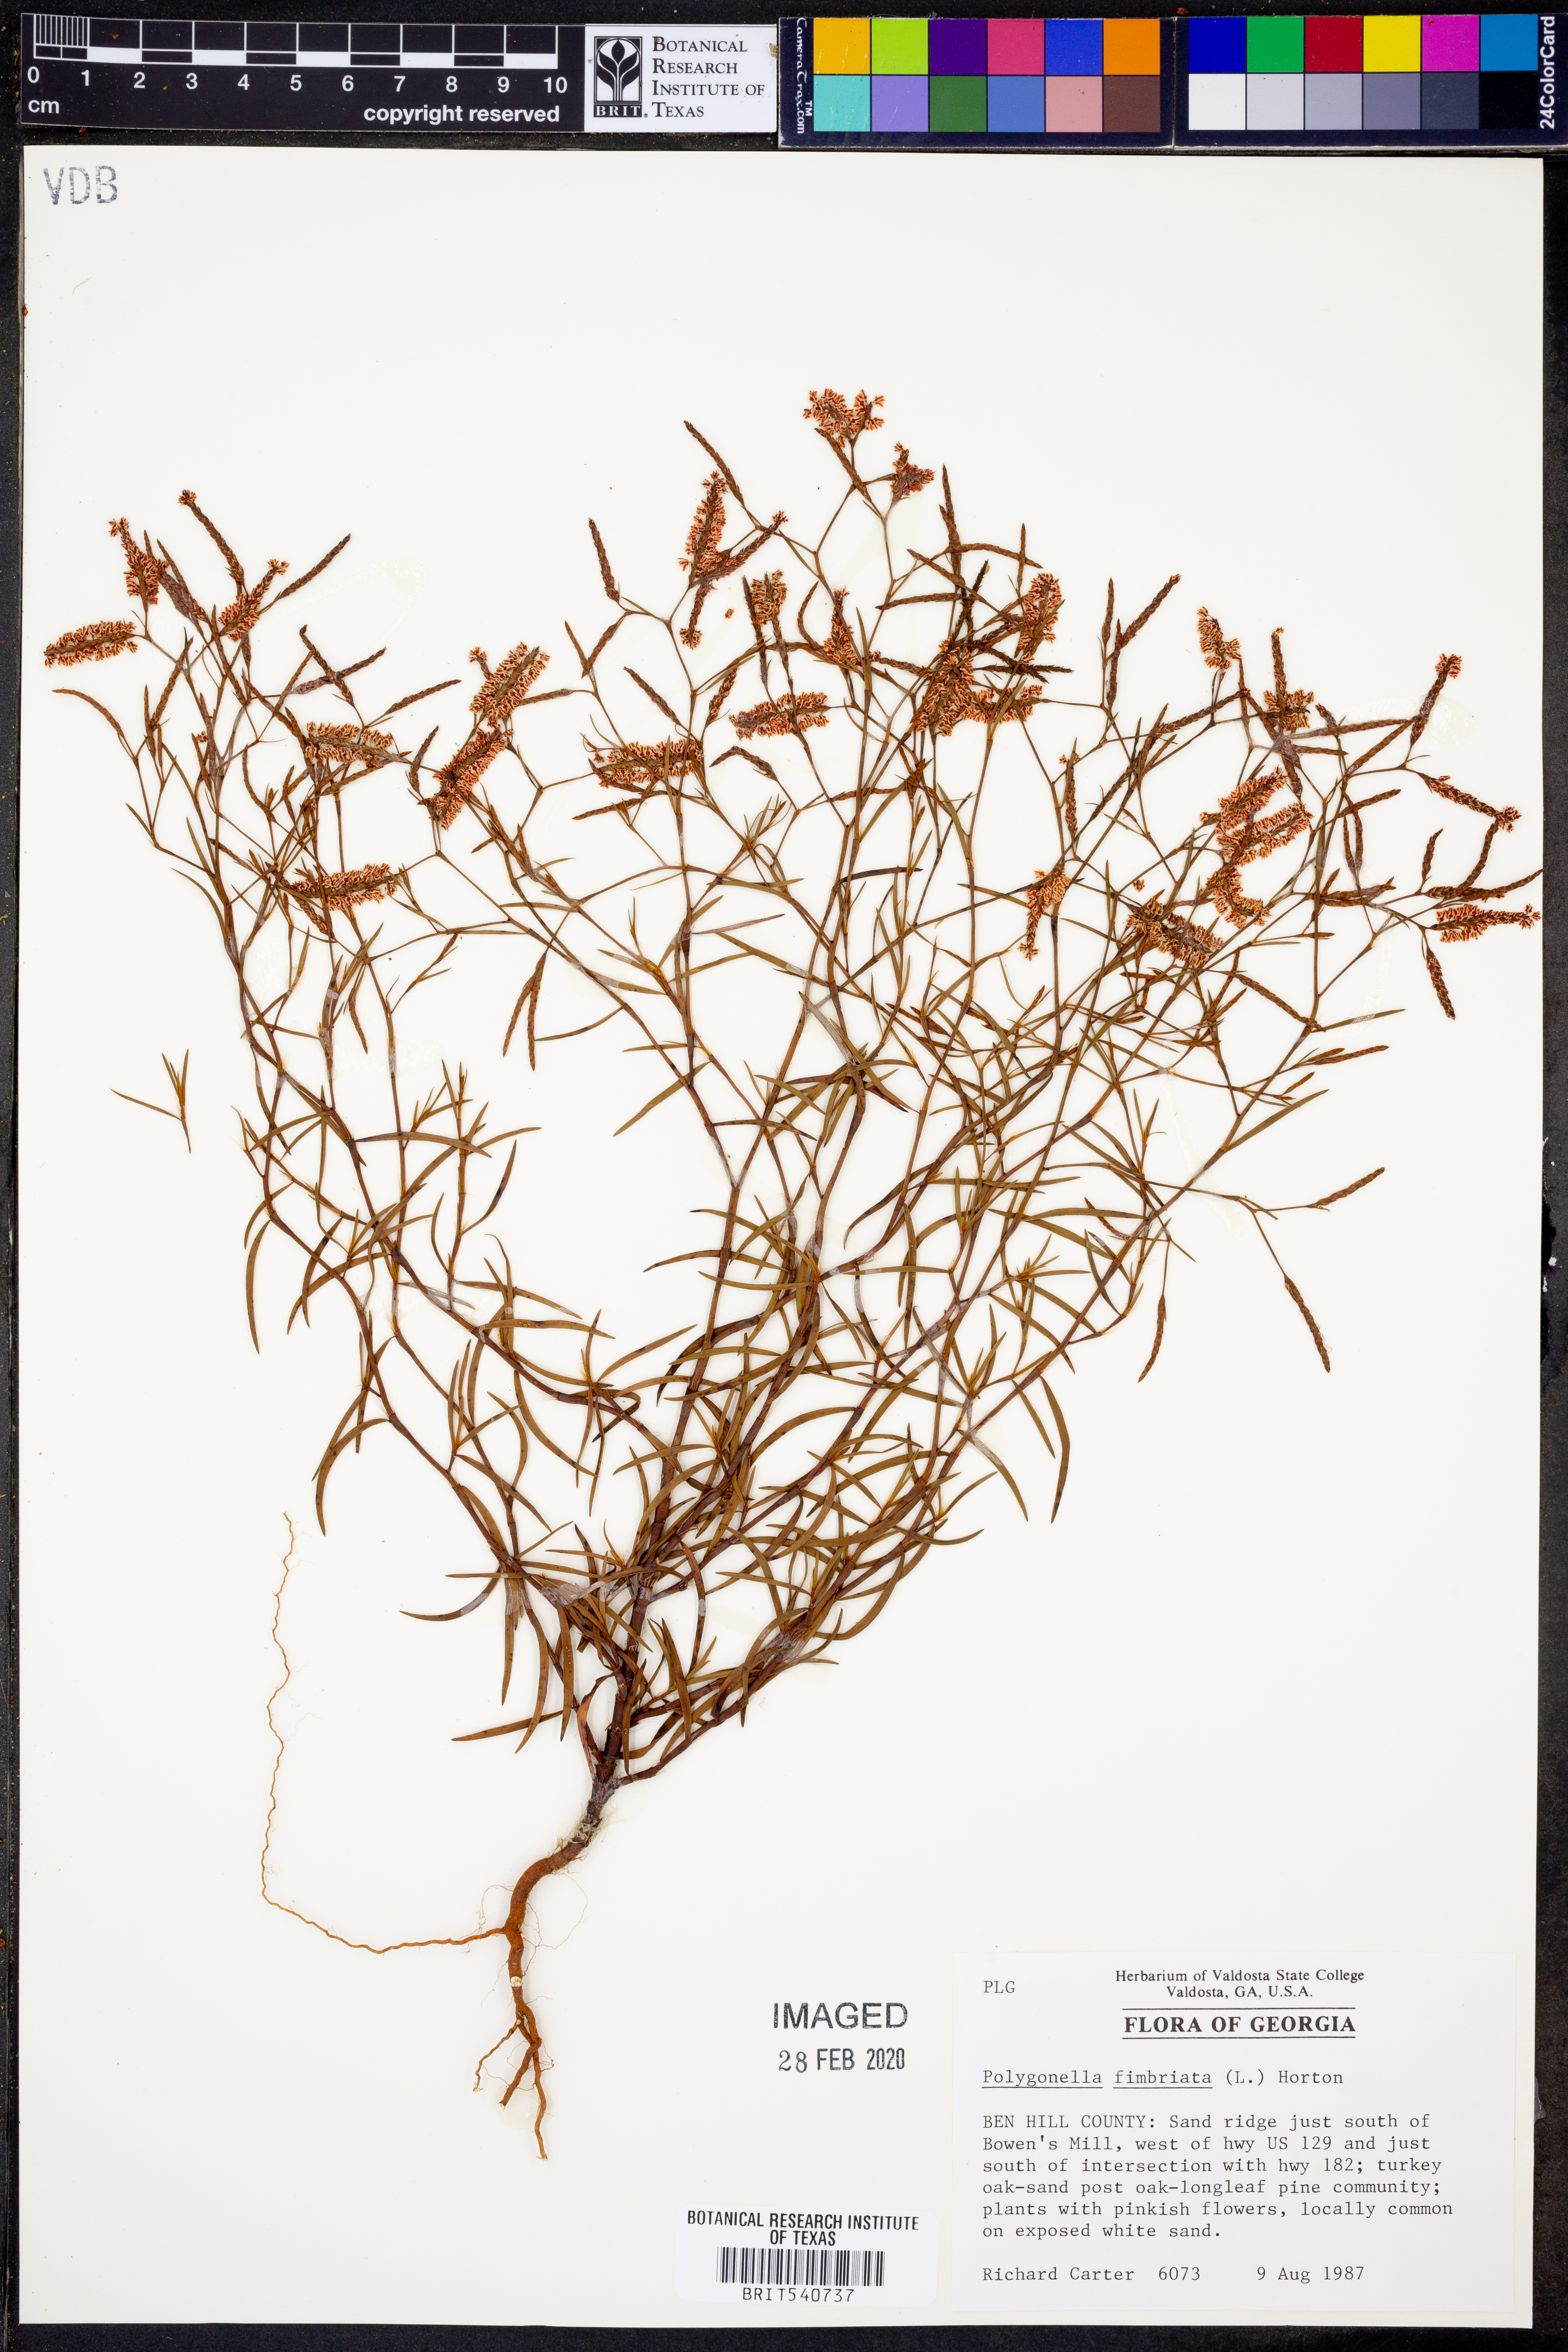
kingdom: Plantae
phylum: Tracheophyta
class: Magnoliopsida
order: Caryophyllales
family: Polygonaceae
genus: Polygonella
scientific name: Polygonella fimbriata
